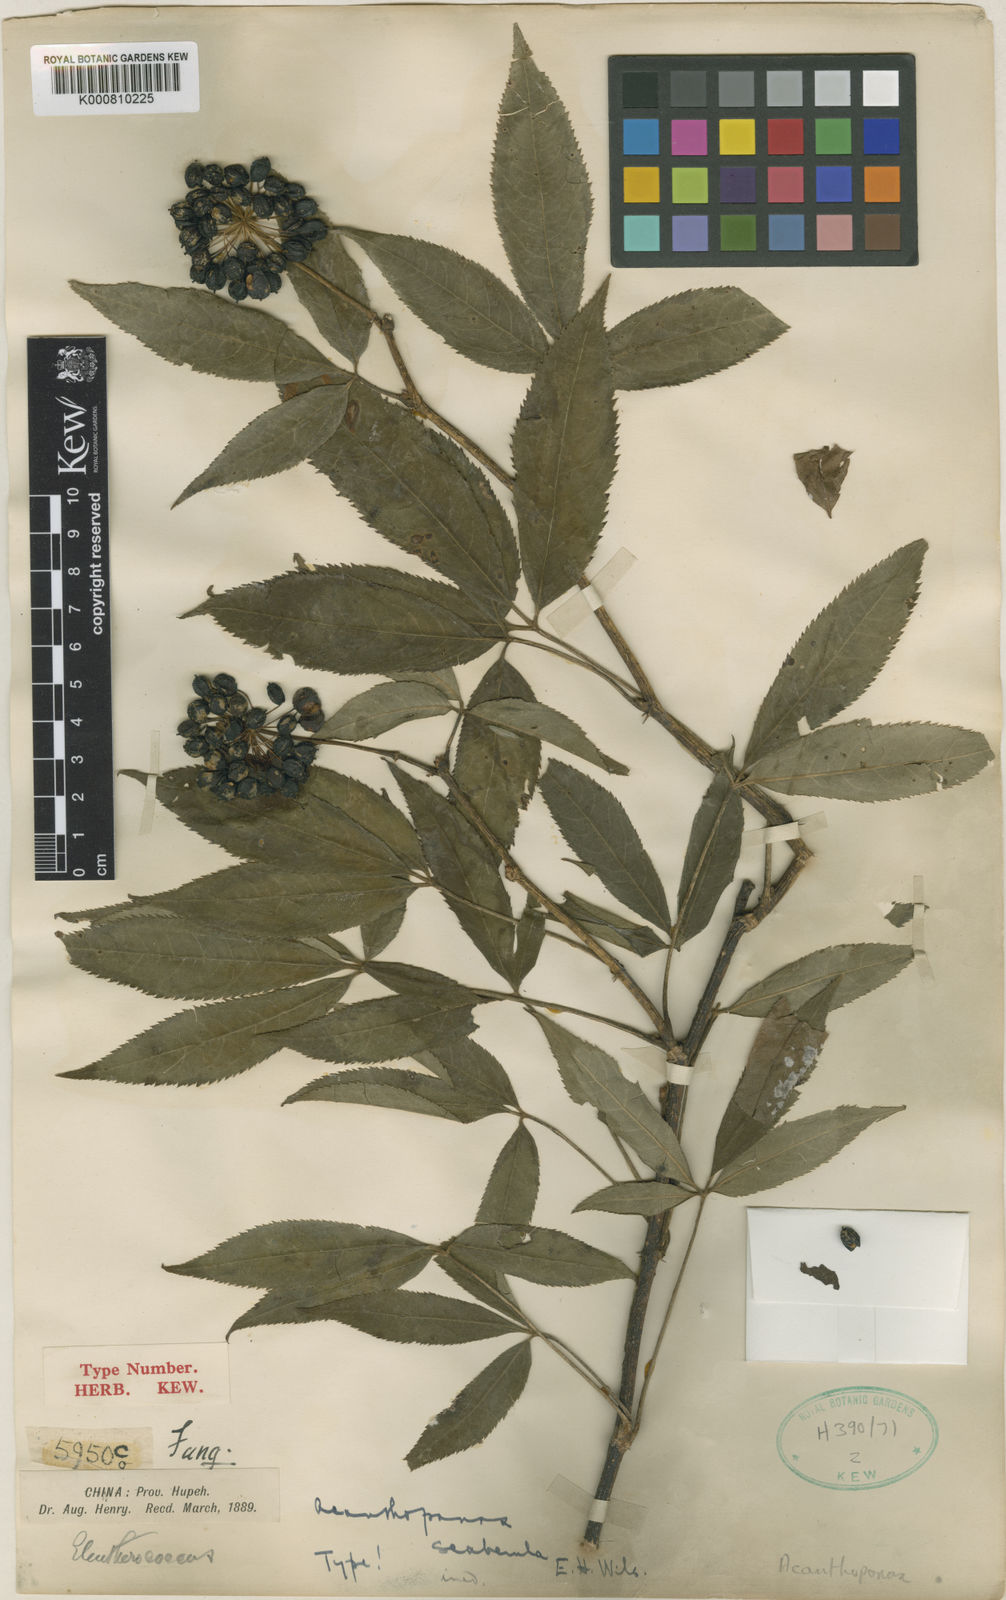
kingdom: Plantae
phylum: Tracheophyta
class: Magnoliopsida
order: Apiales
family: Araliaceae
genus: Eleutherococcus
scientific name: Eleutherococcus leucorrhizus
